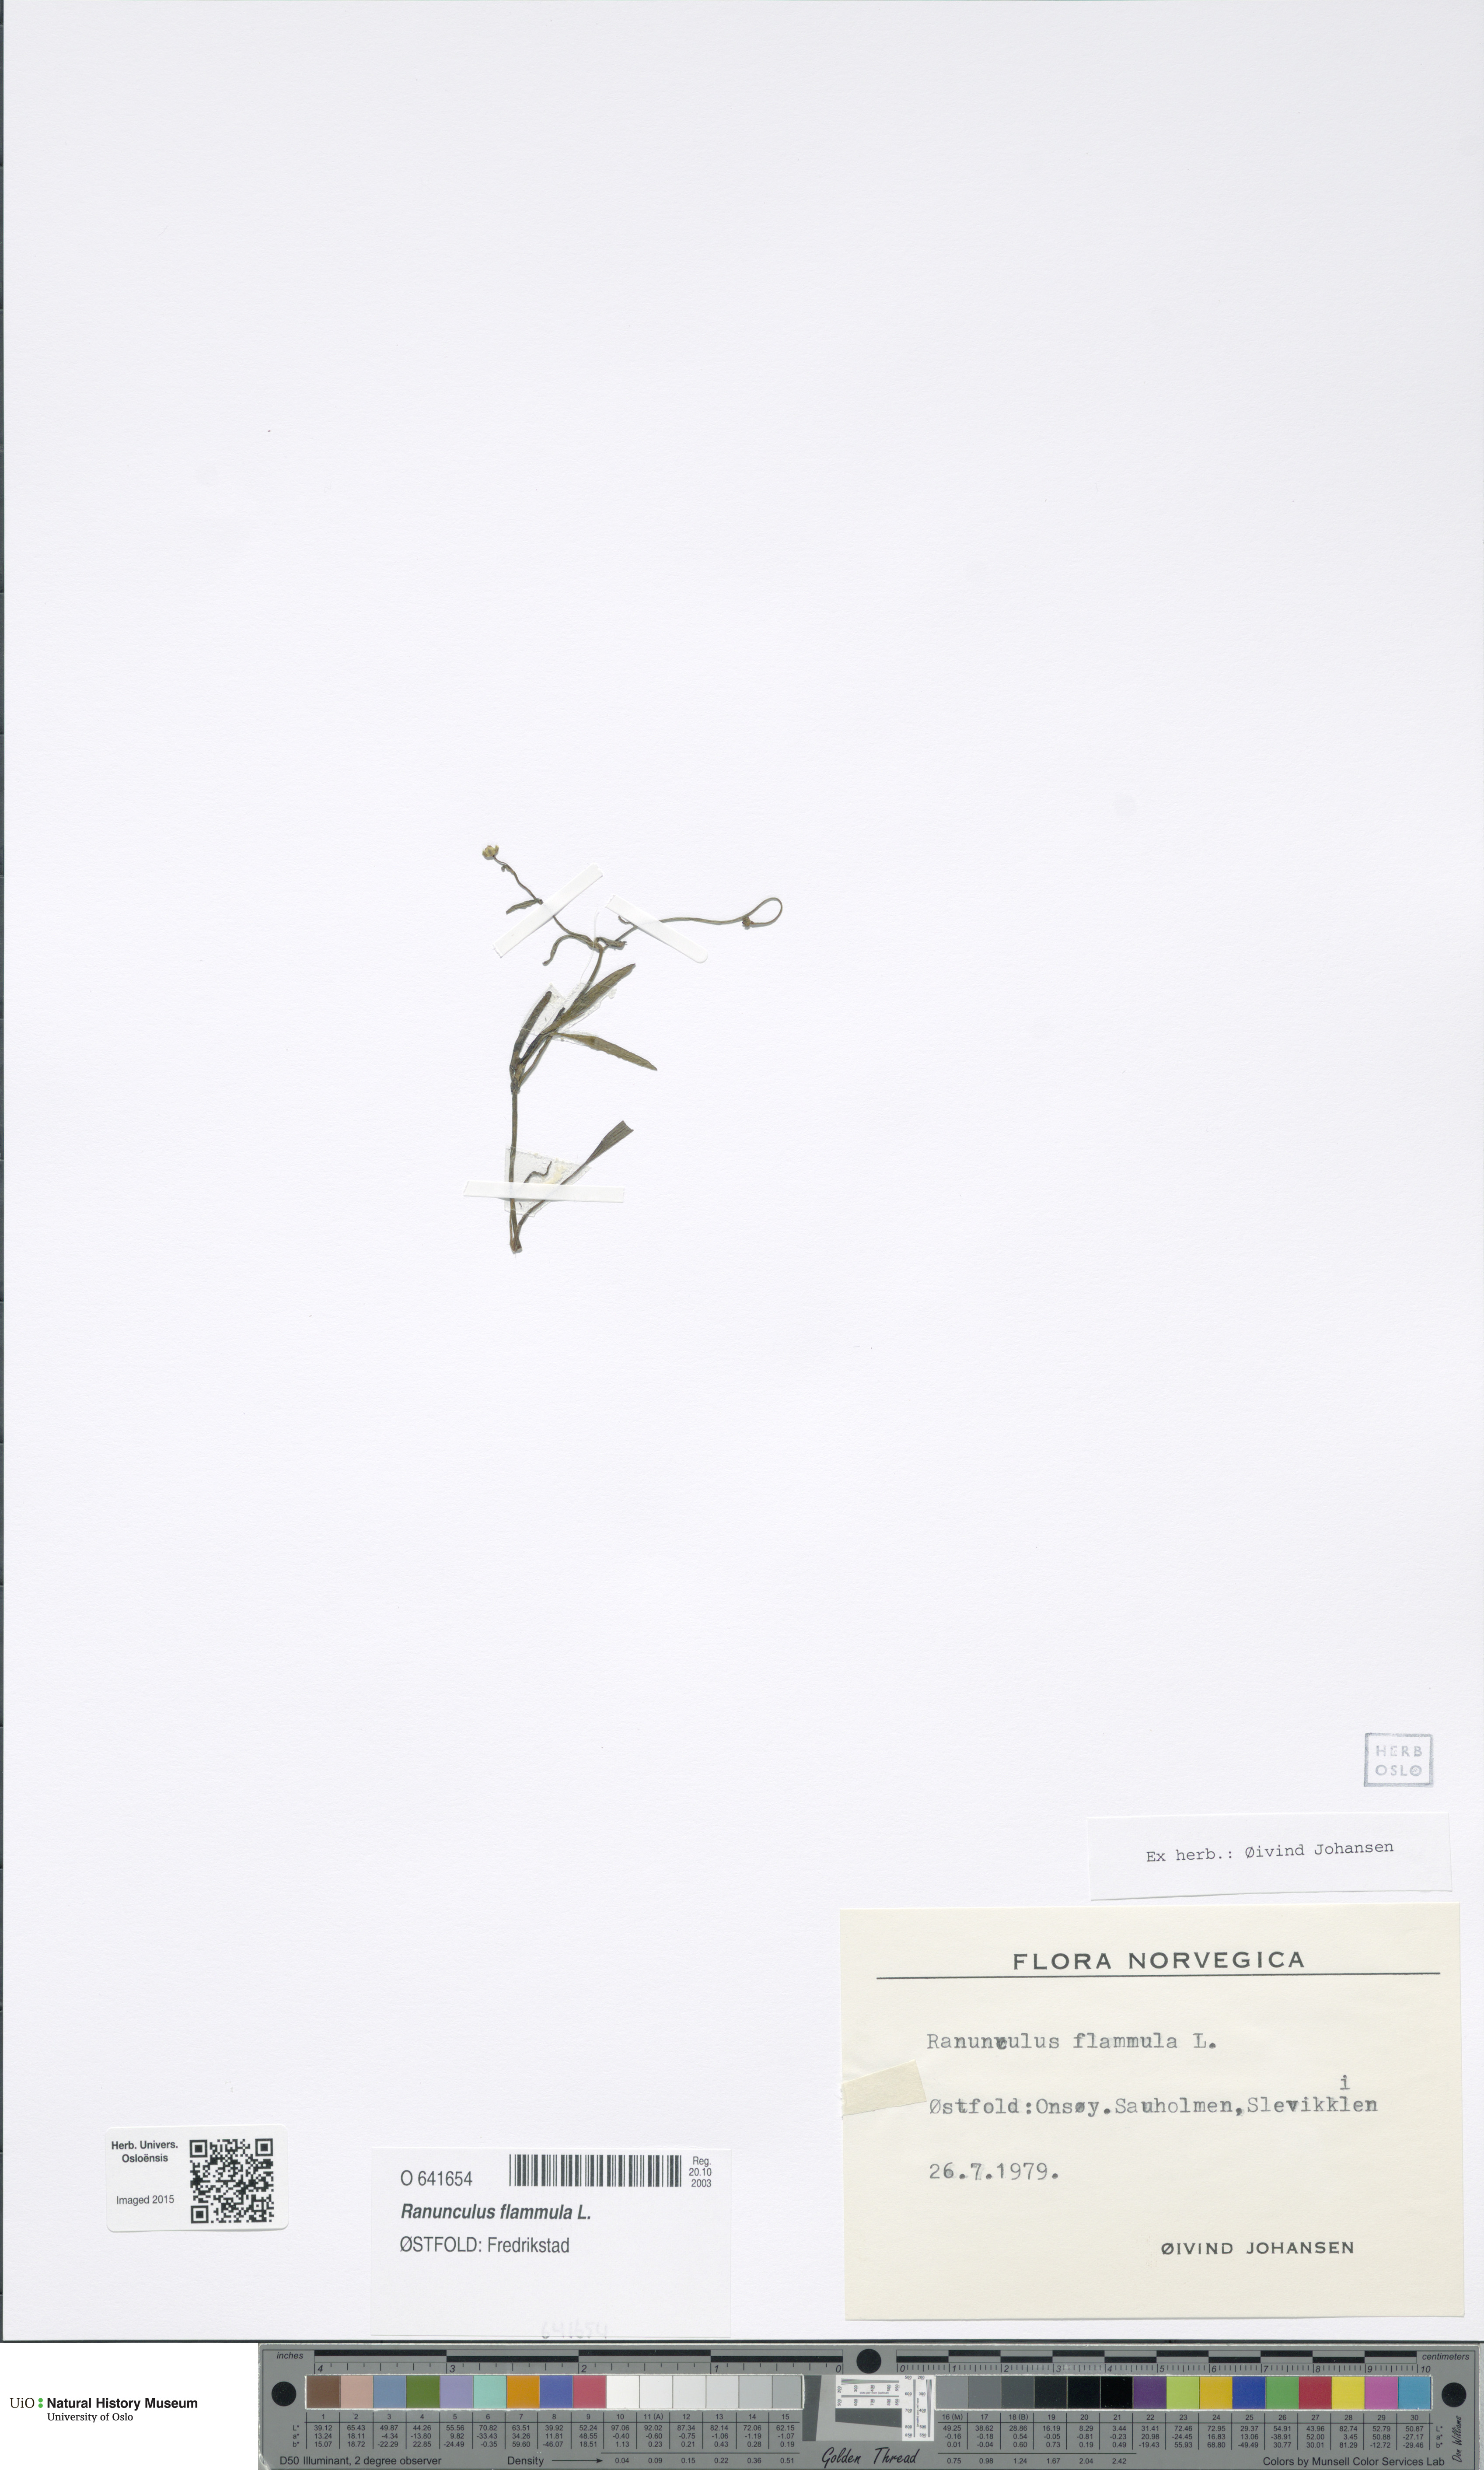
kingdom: Plantae
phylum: Tracheophyta
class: Magnoliopsida
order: Ranunculales
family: Ranunculaceae
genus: Ranunculus
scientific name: Ranunculus flammula
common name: Lesser spearwort
